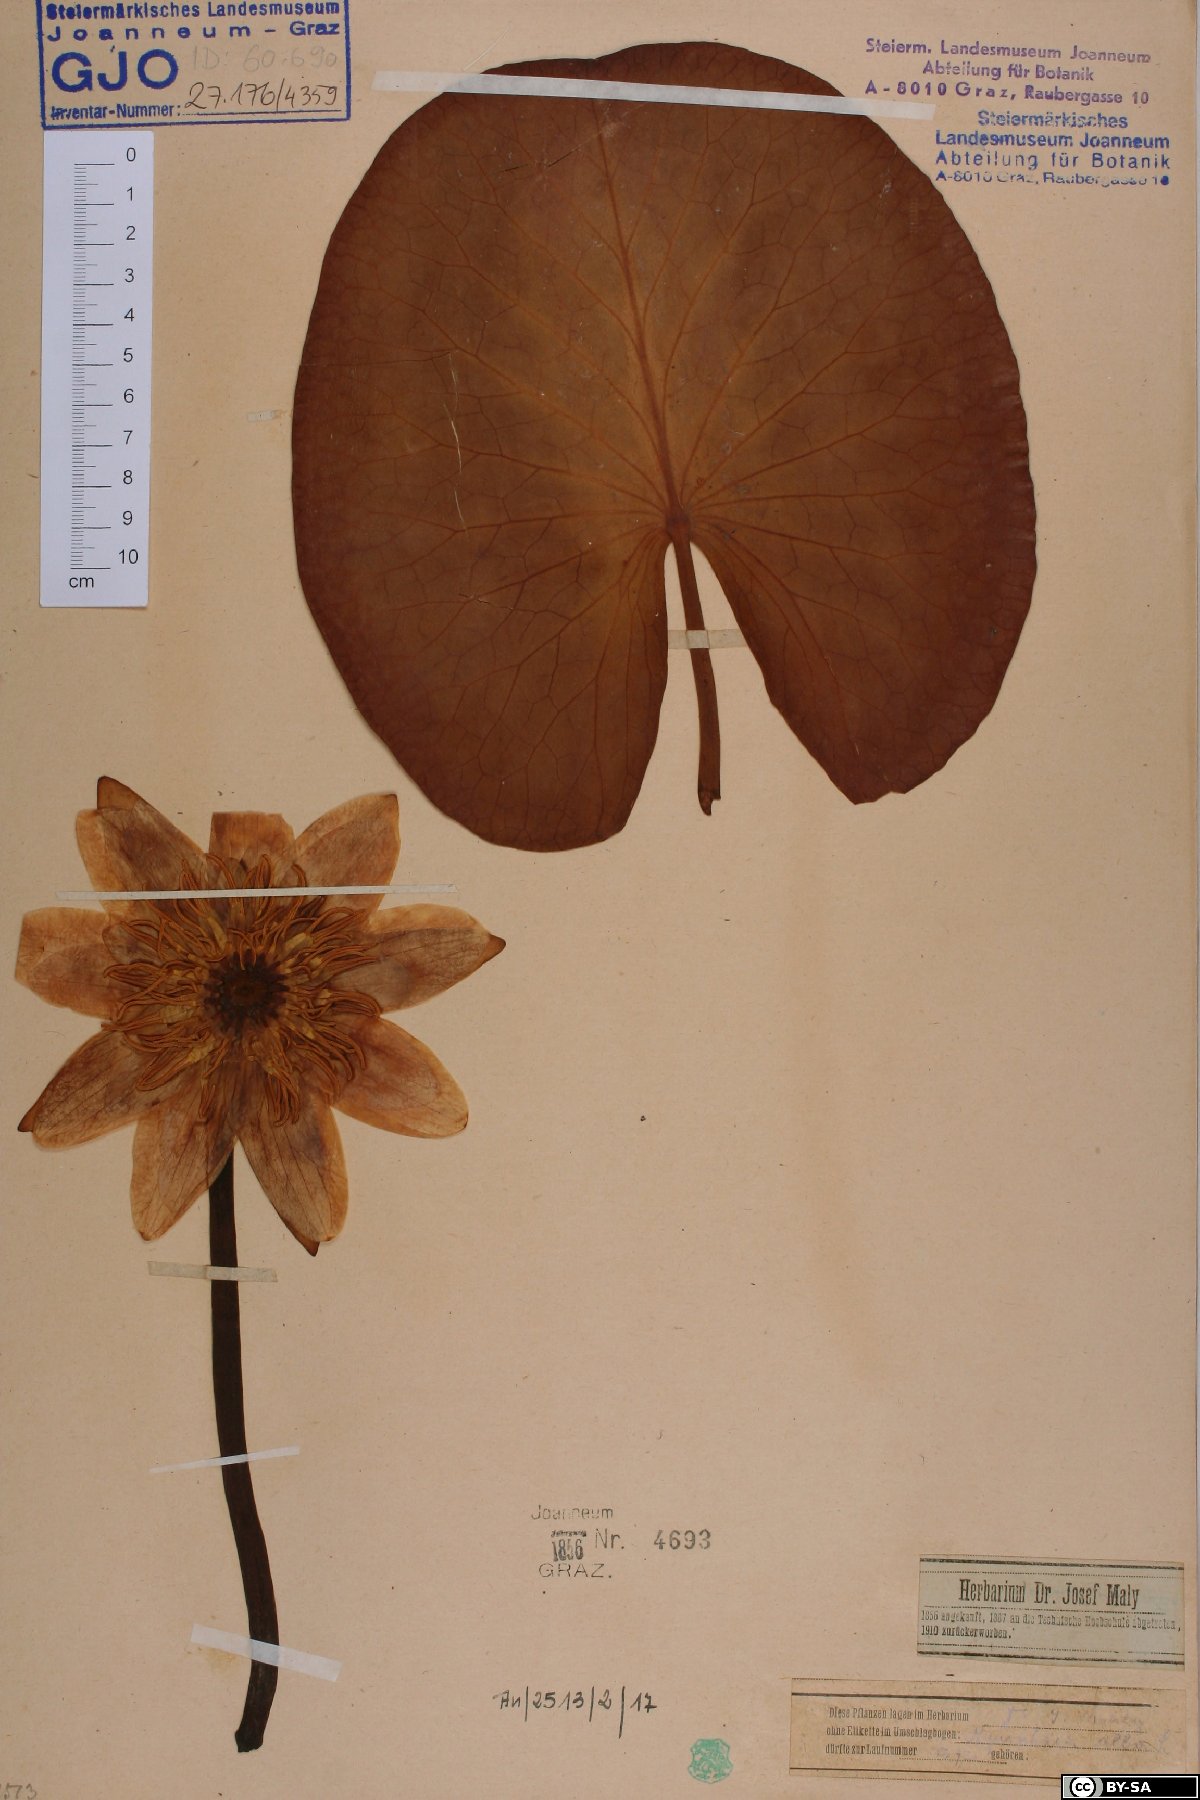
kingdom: Plantae
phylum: Tracheophyta
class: Magnoliopsida
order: Nymphaeales
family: Nymphaeaceae
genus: Nymphaea
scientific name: Nymphaea alba
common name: White water-lily
